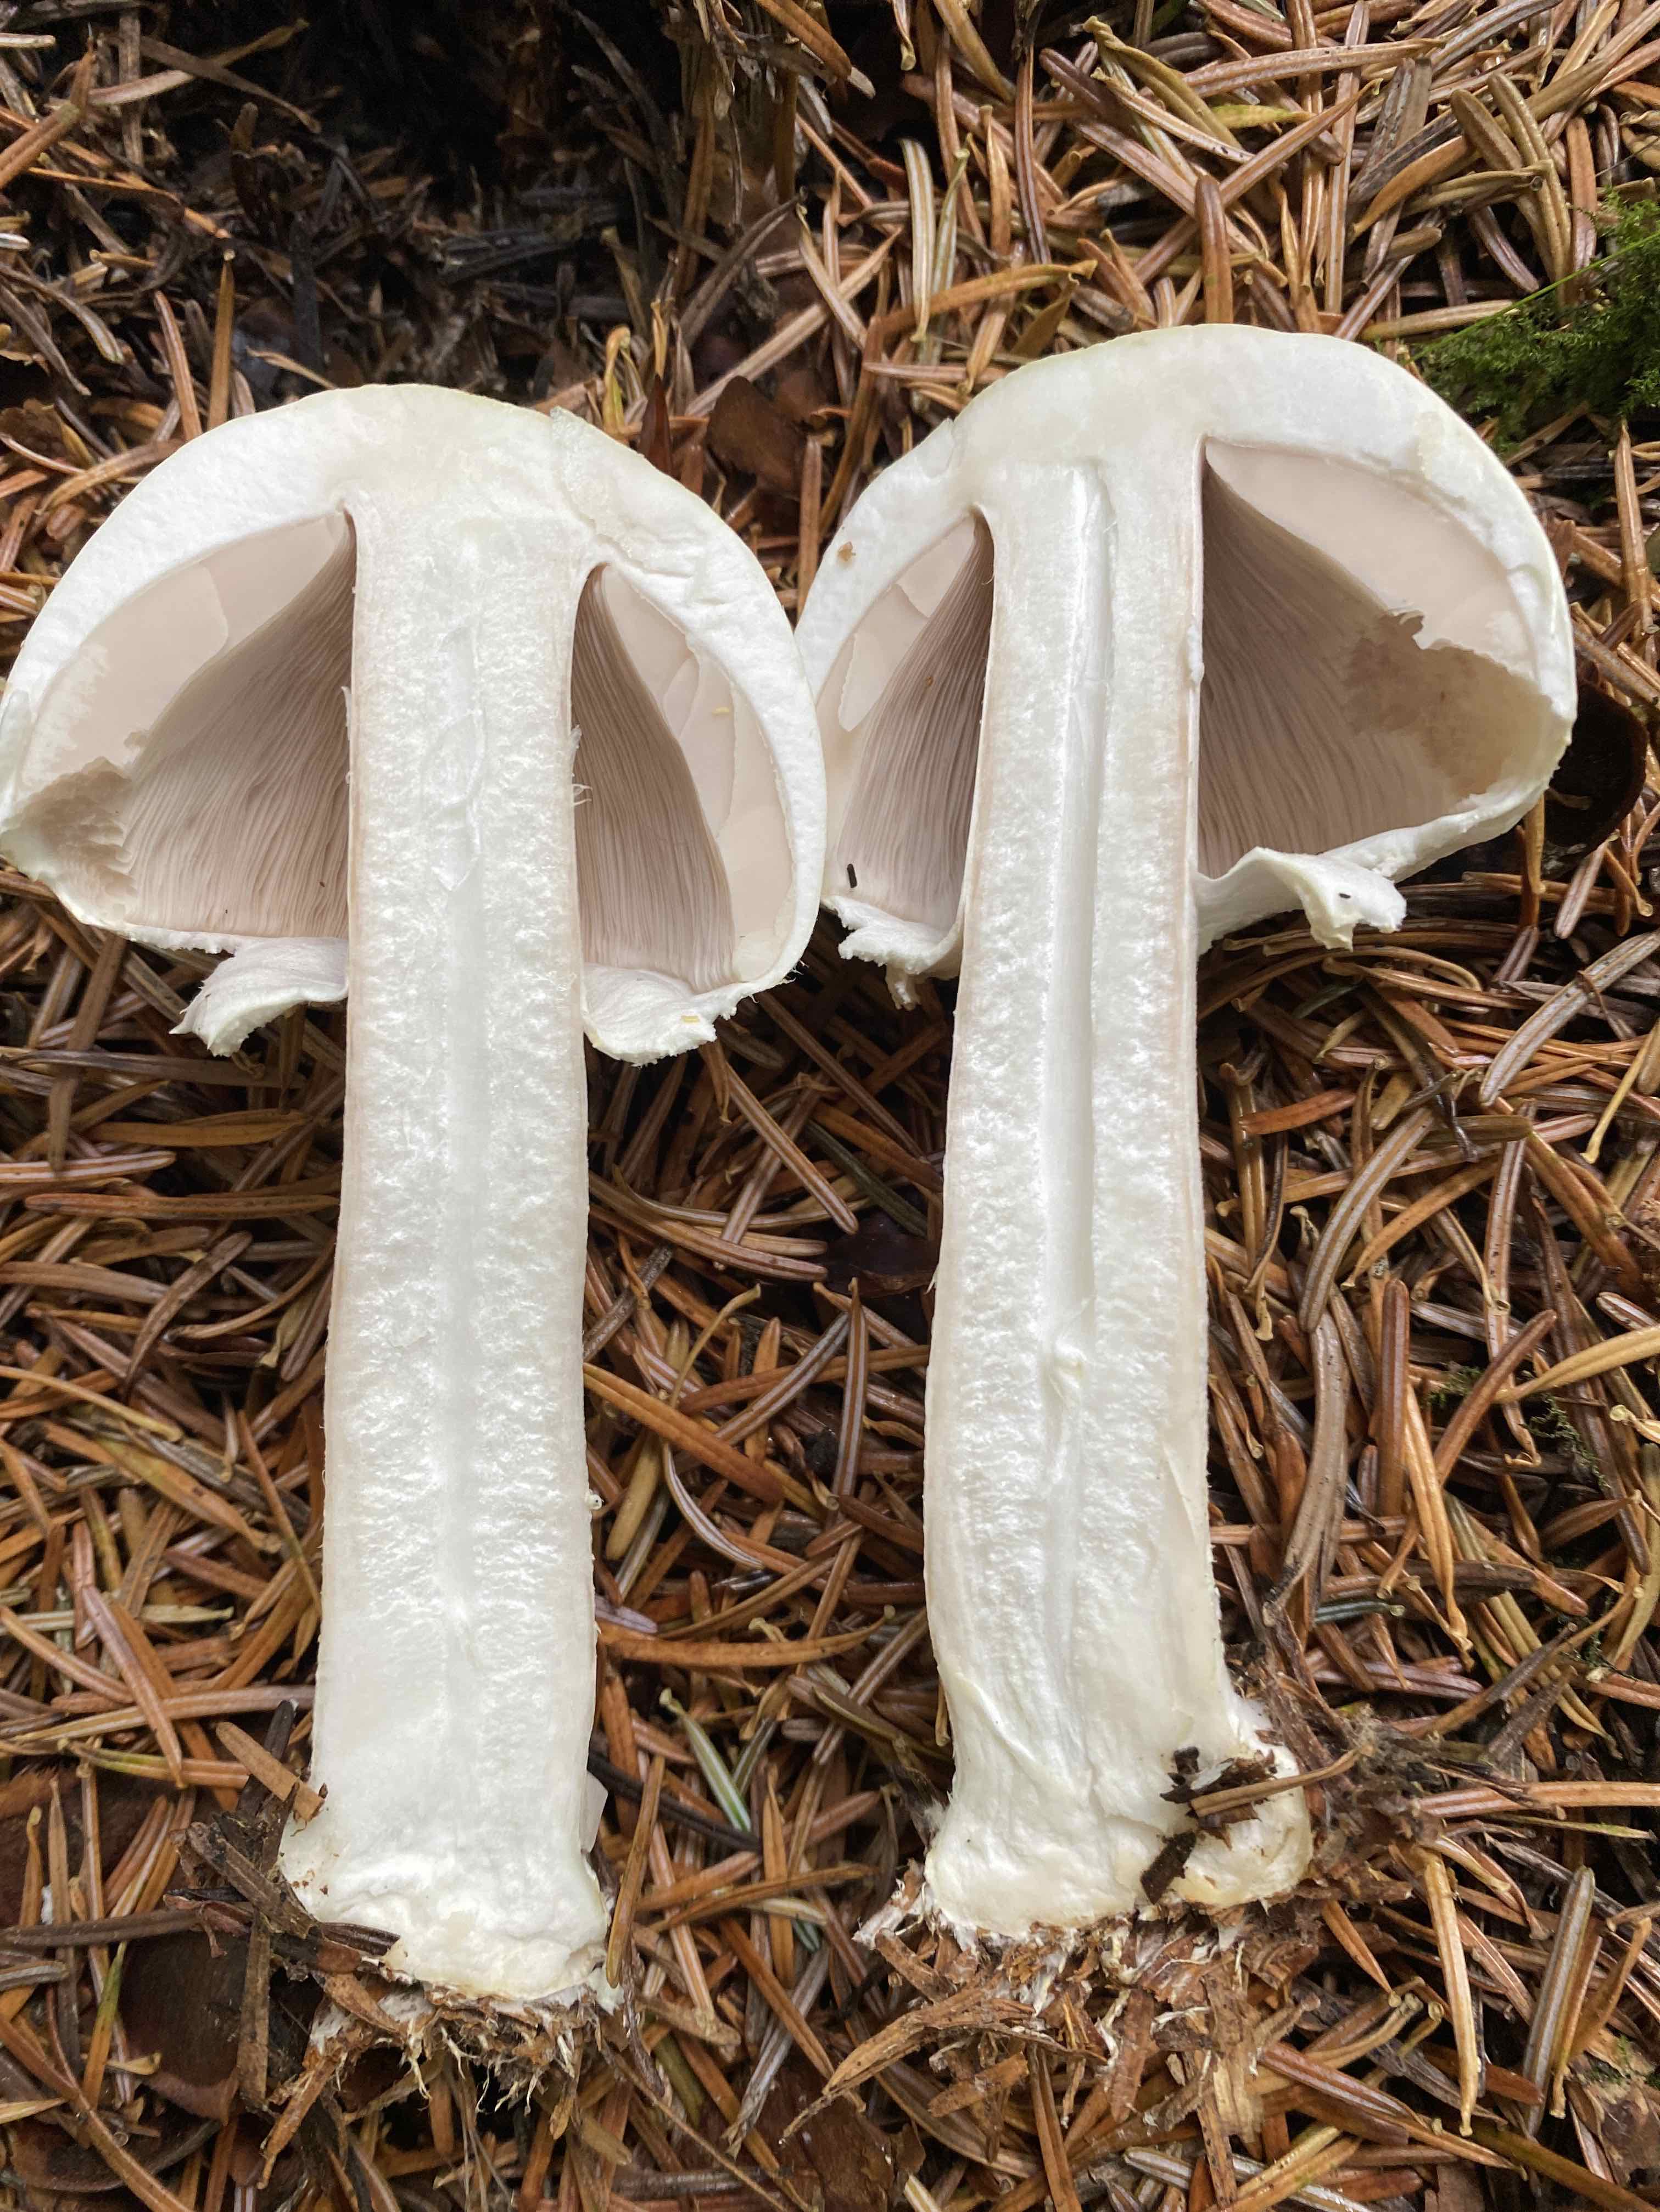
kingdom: Fungi
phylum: Basidiomycota
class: Agaricomycetes
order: Agaricales
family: Agaricaceae
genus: Agaricus
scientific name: Agaricus sylvicola
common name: skiveknoldet champignon
